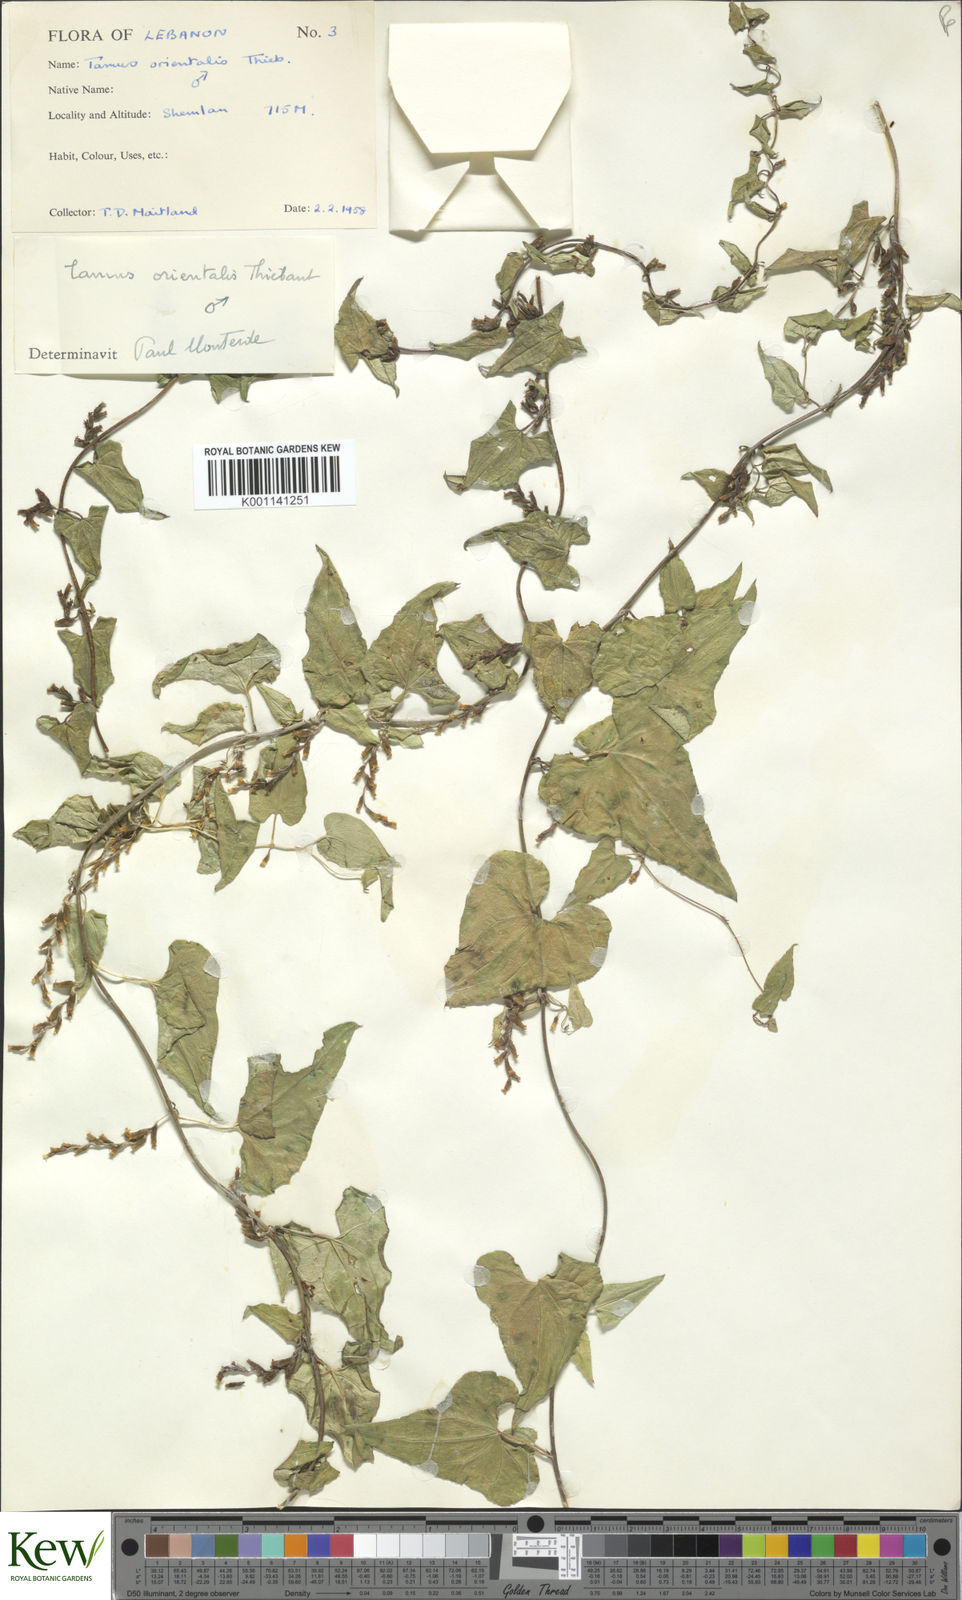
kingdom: Plantae
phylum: Tracheophyta
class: Liliopsida
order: Dioscoreales
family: Dioscoreaceae
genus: Dioscorea
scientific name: Dioscorea
